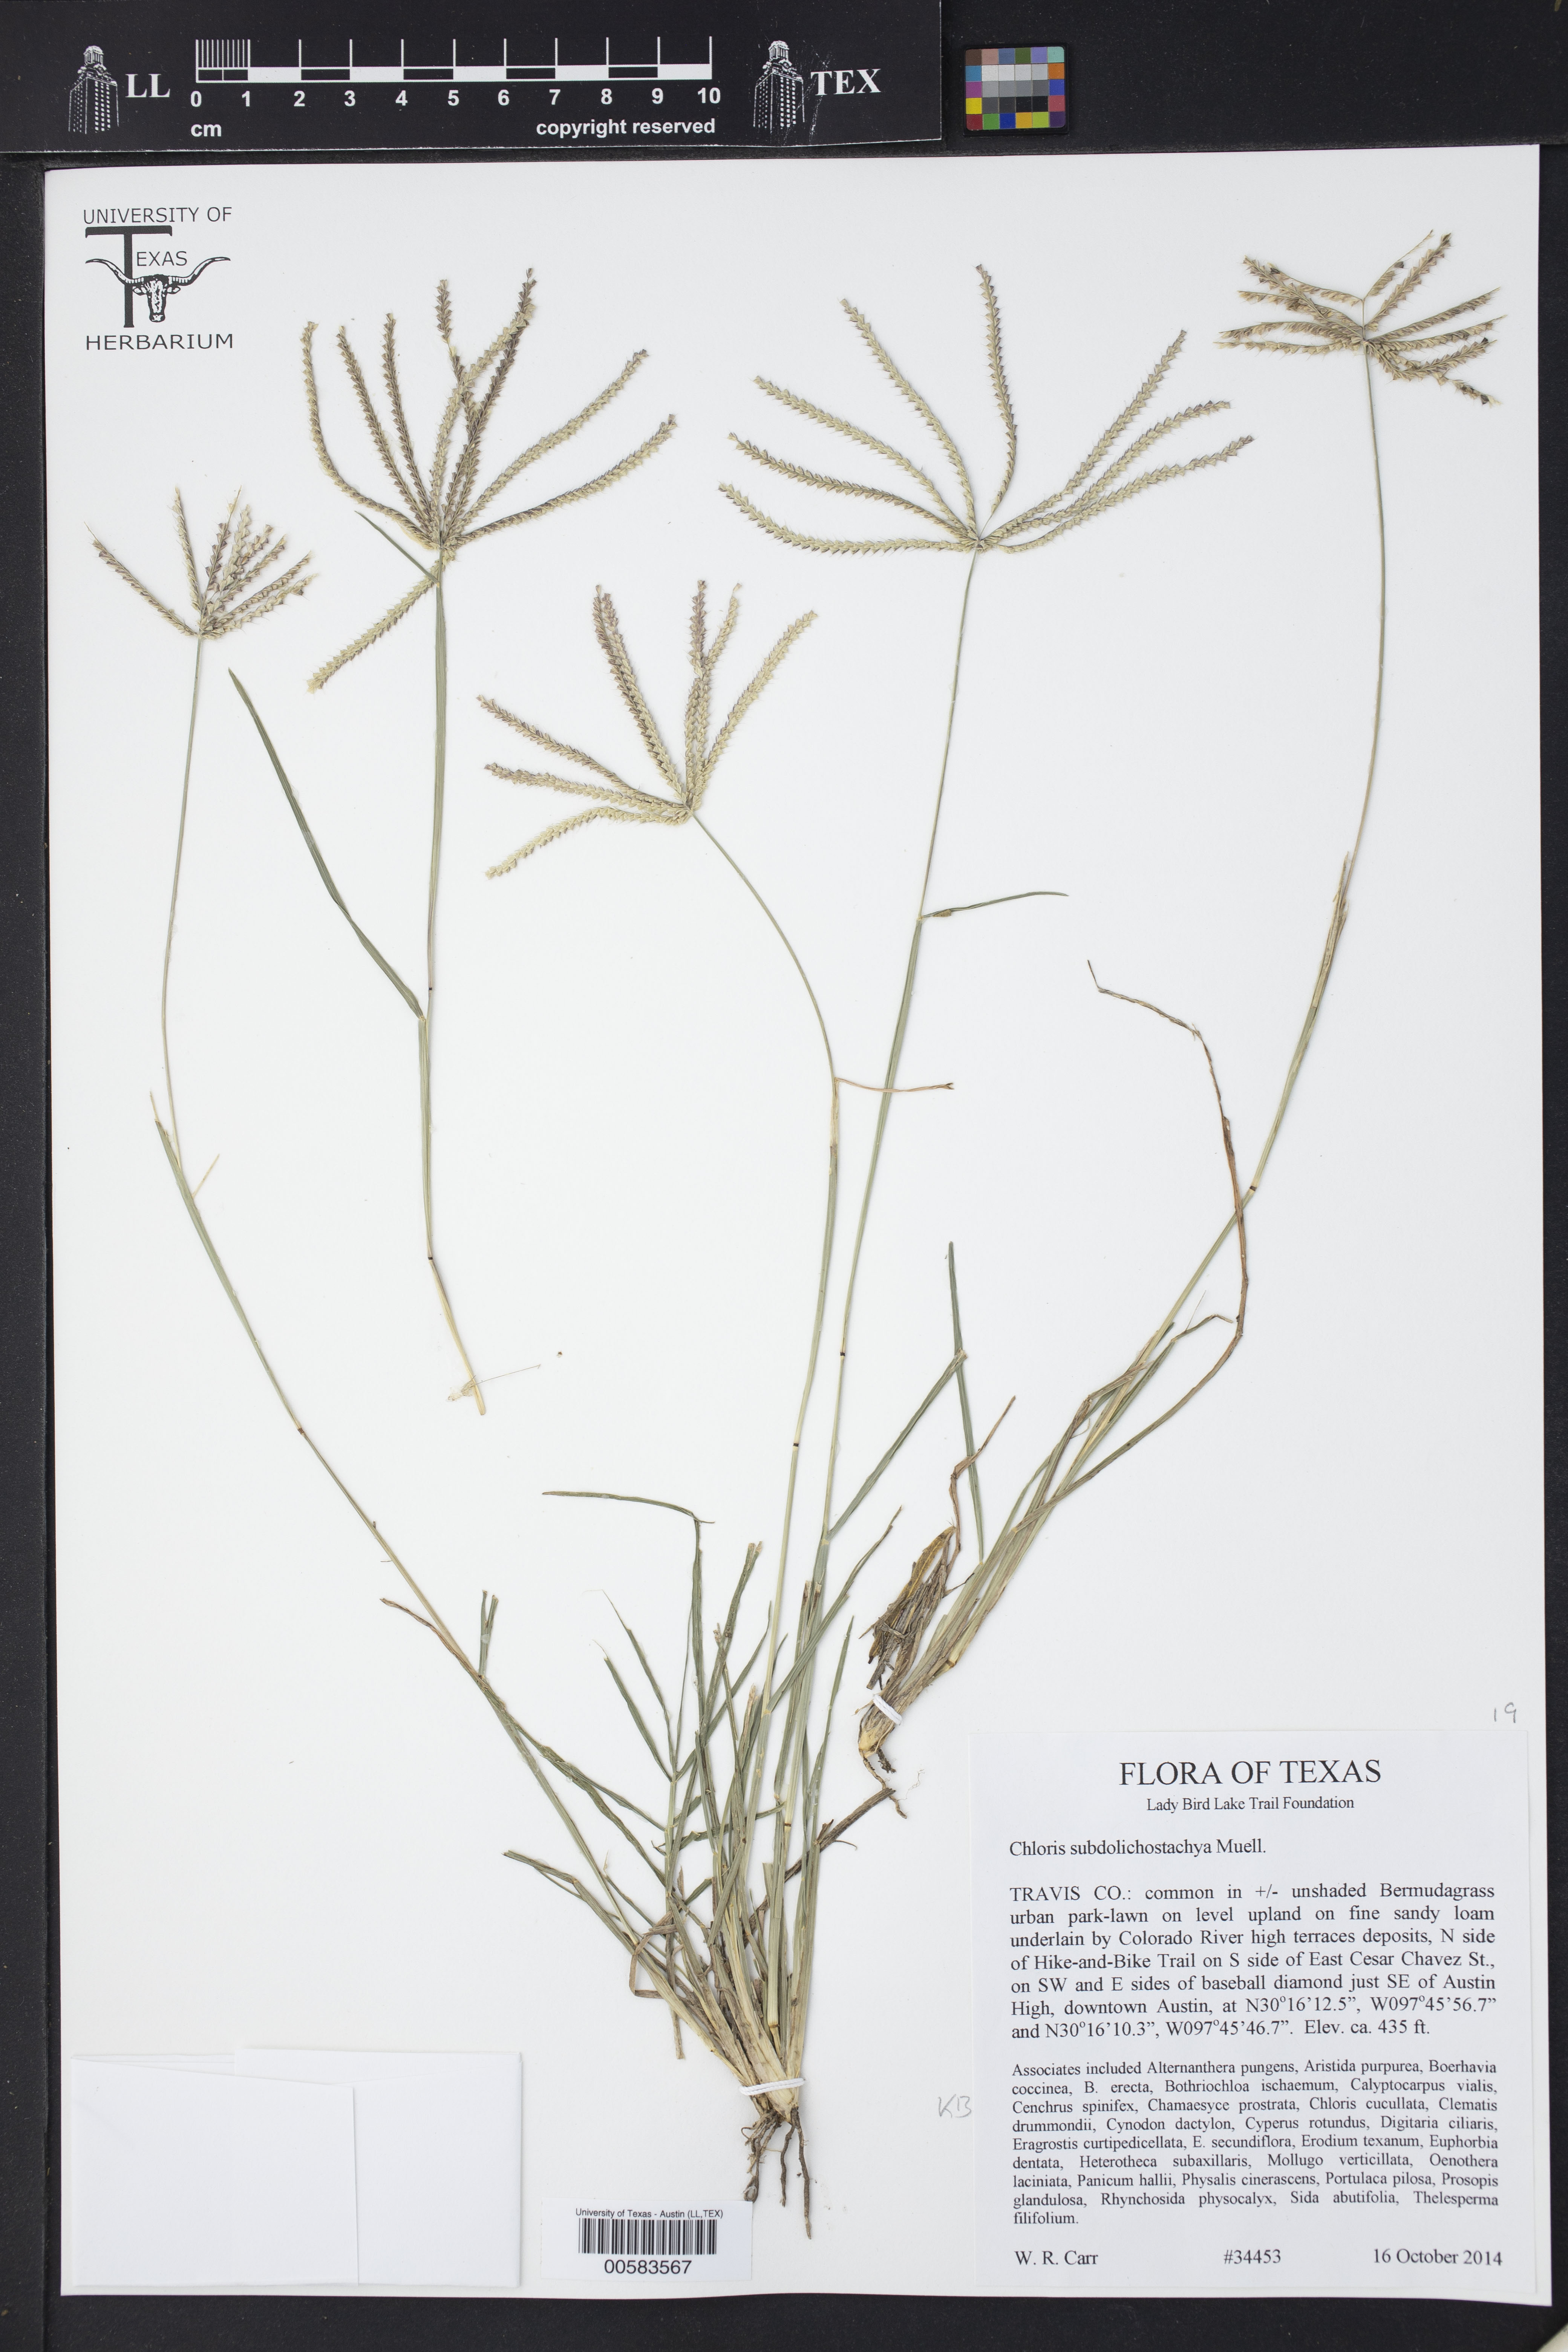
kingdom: Plantae
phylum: Tracheophyta
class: Liliopsida
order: Poales
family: Poaceae
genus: Chloris
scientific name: Chloris subdolichostachya
